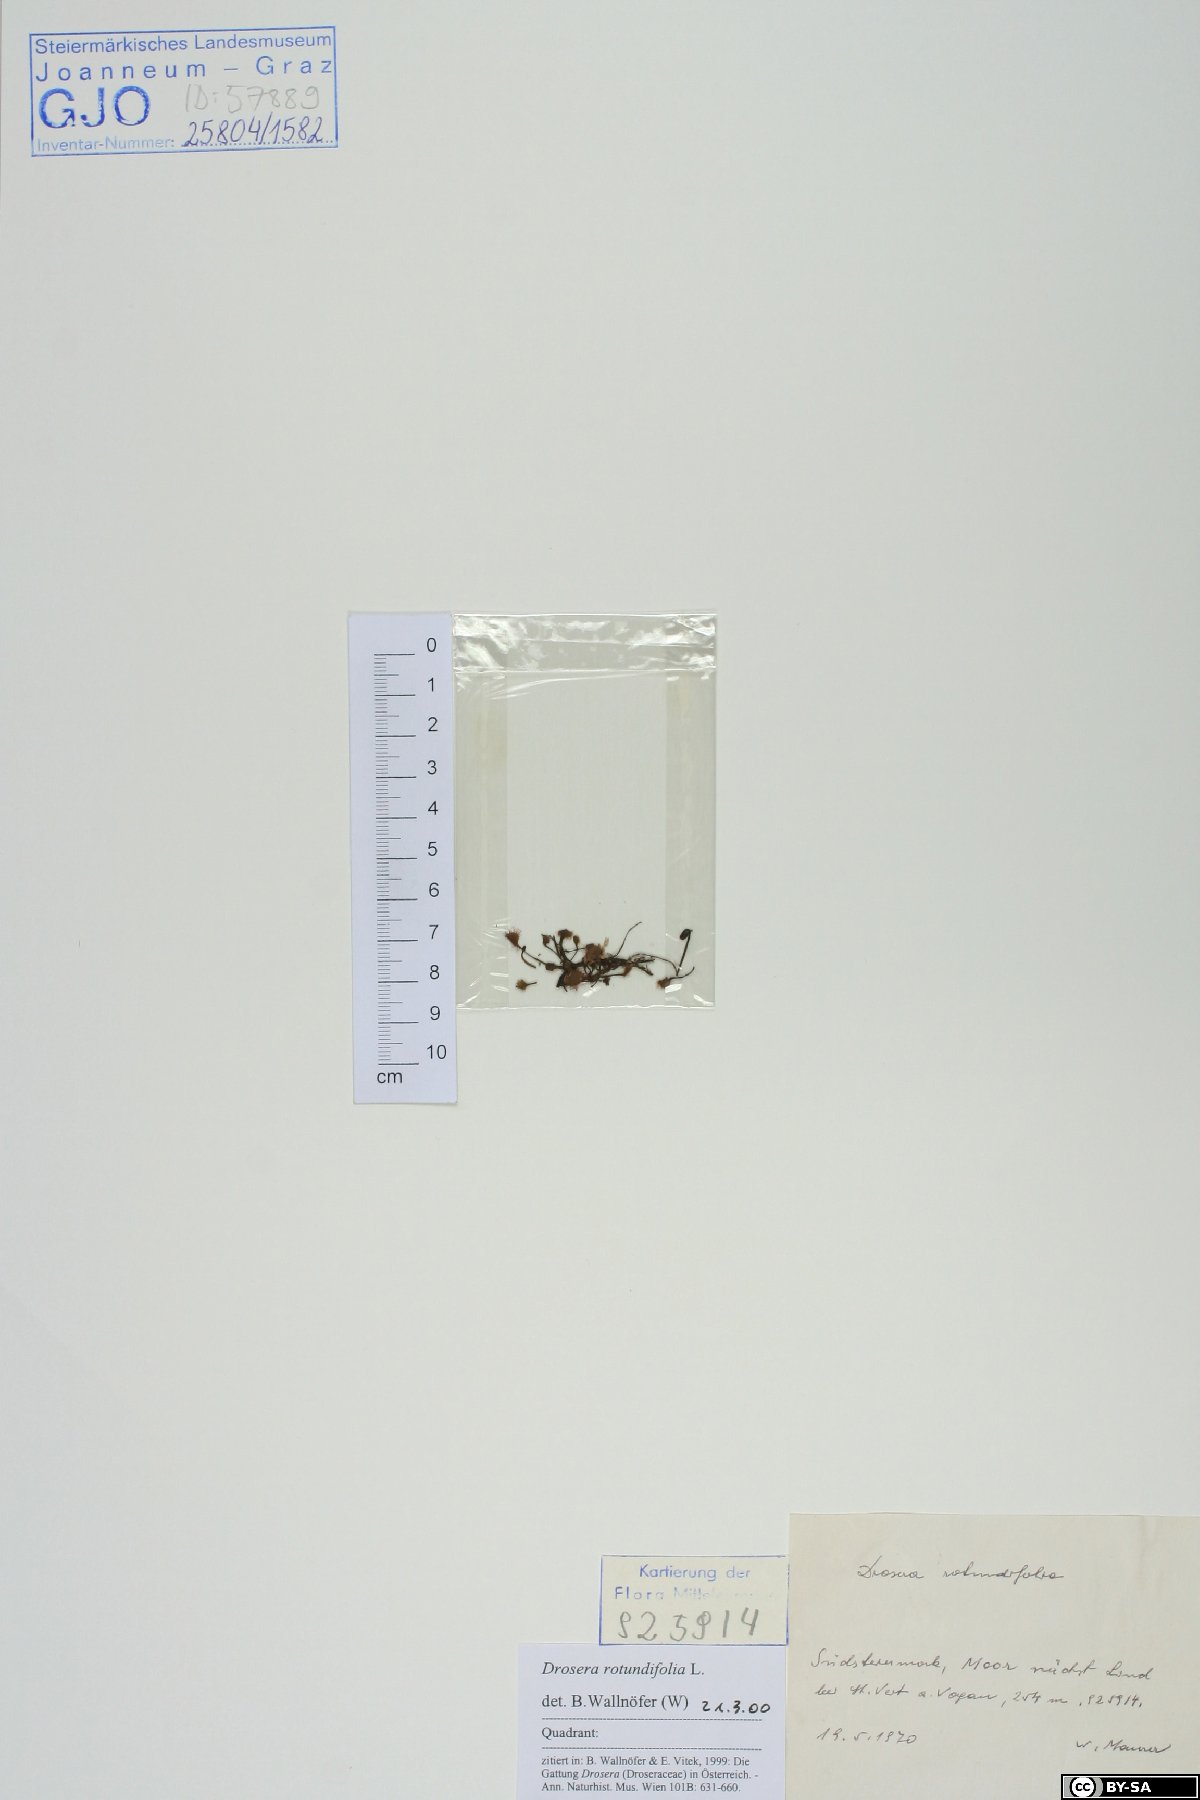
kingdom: Plantae
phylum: Tracheophyta
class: Magnoliopsida
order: Caryophyllales
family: Droseraceae
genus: Drosera
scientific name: Drosera rotundifolia
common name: Round-leaved sundew
